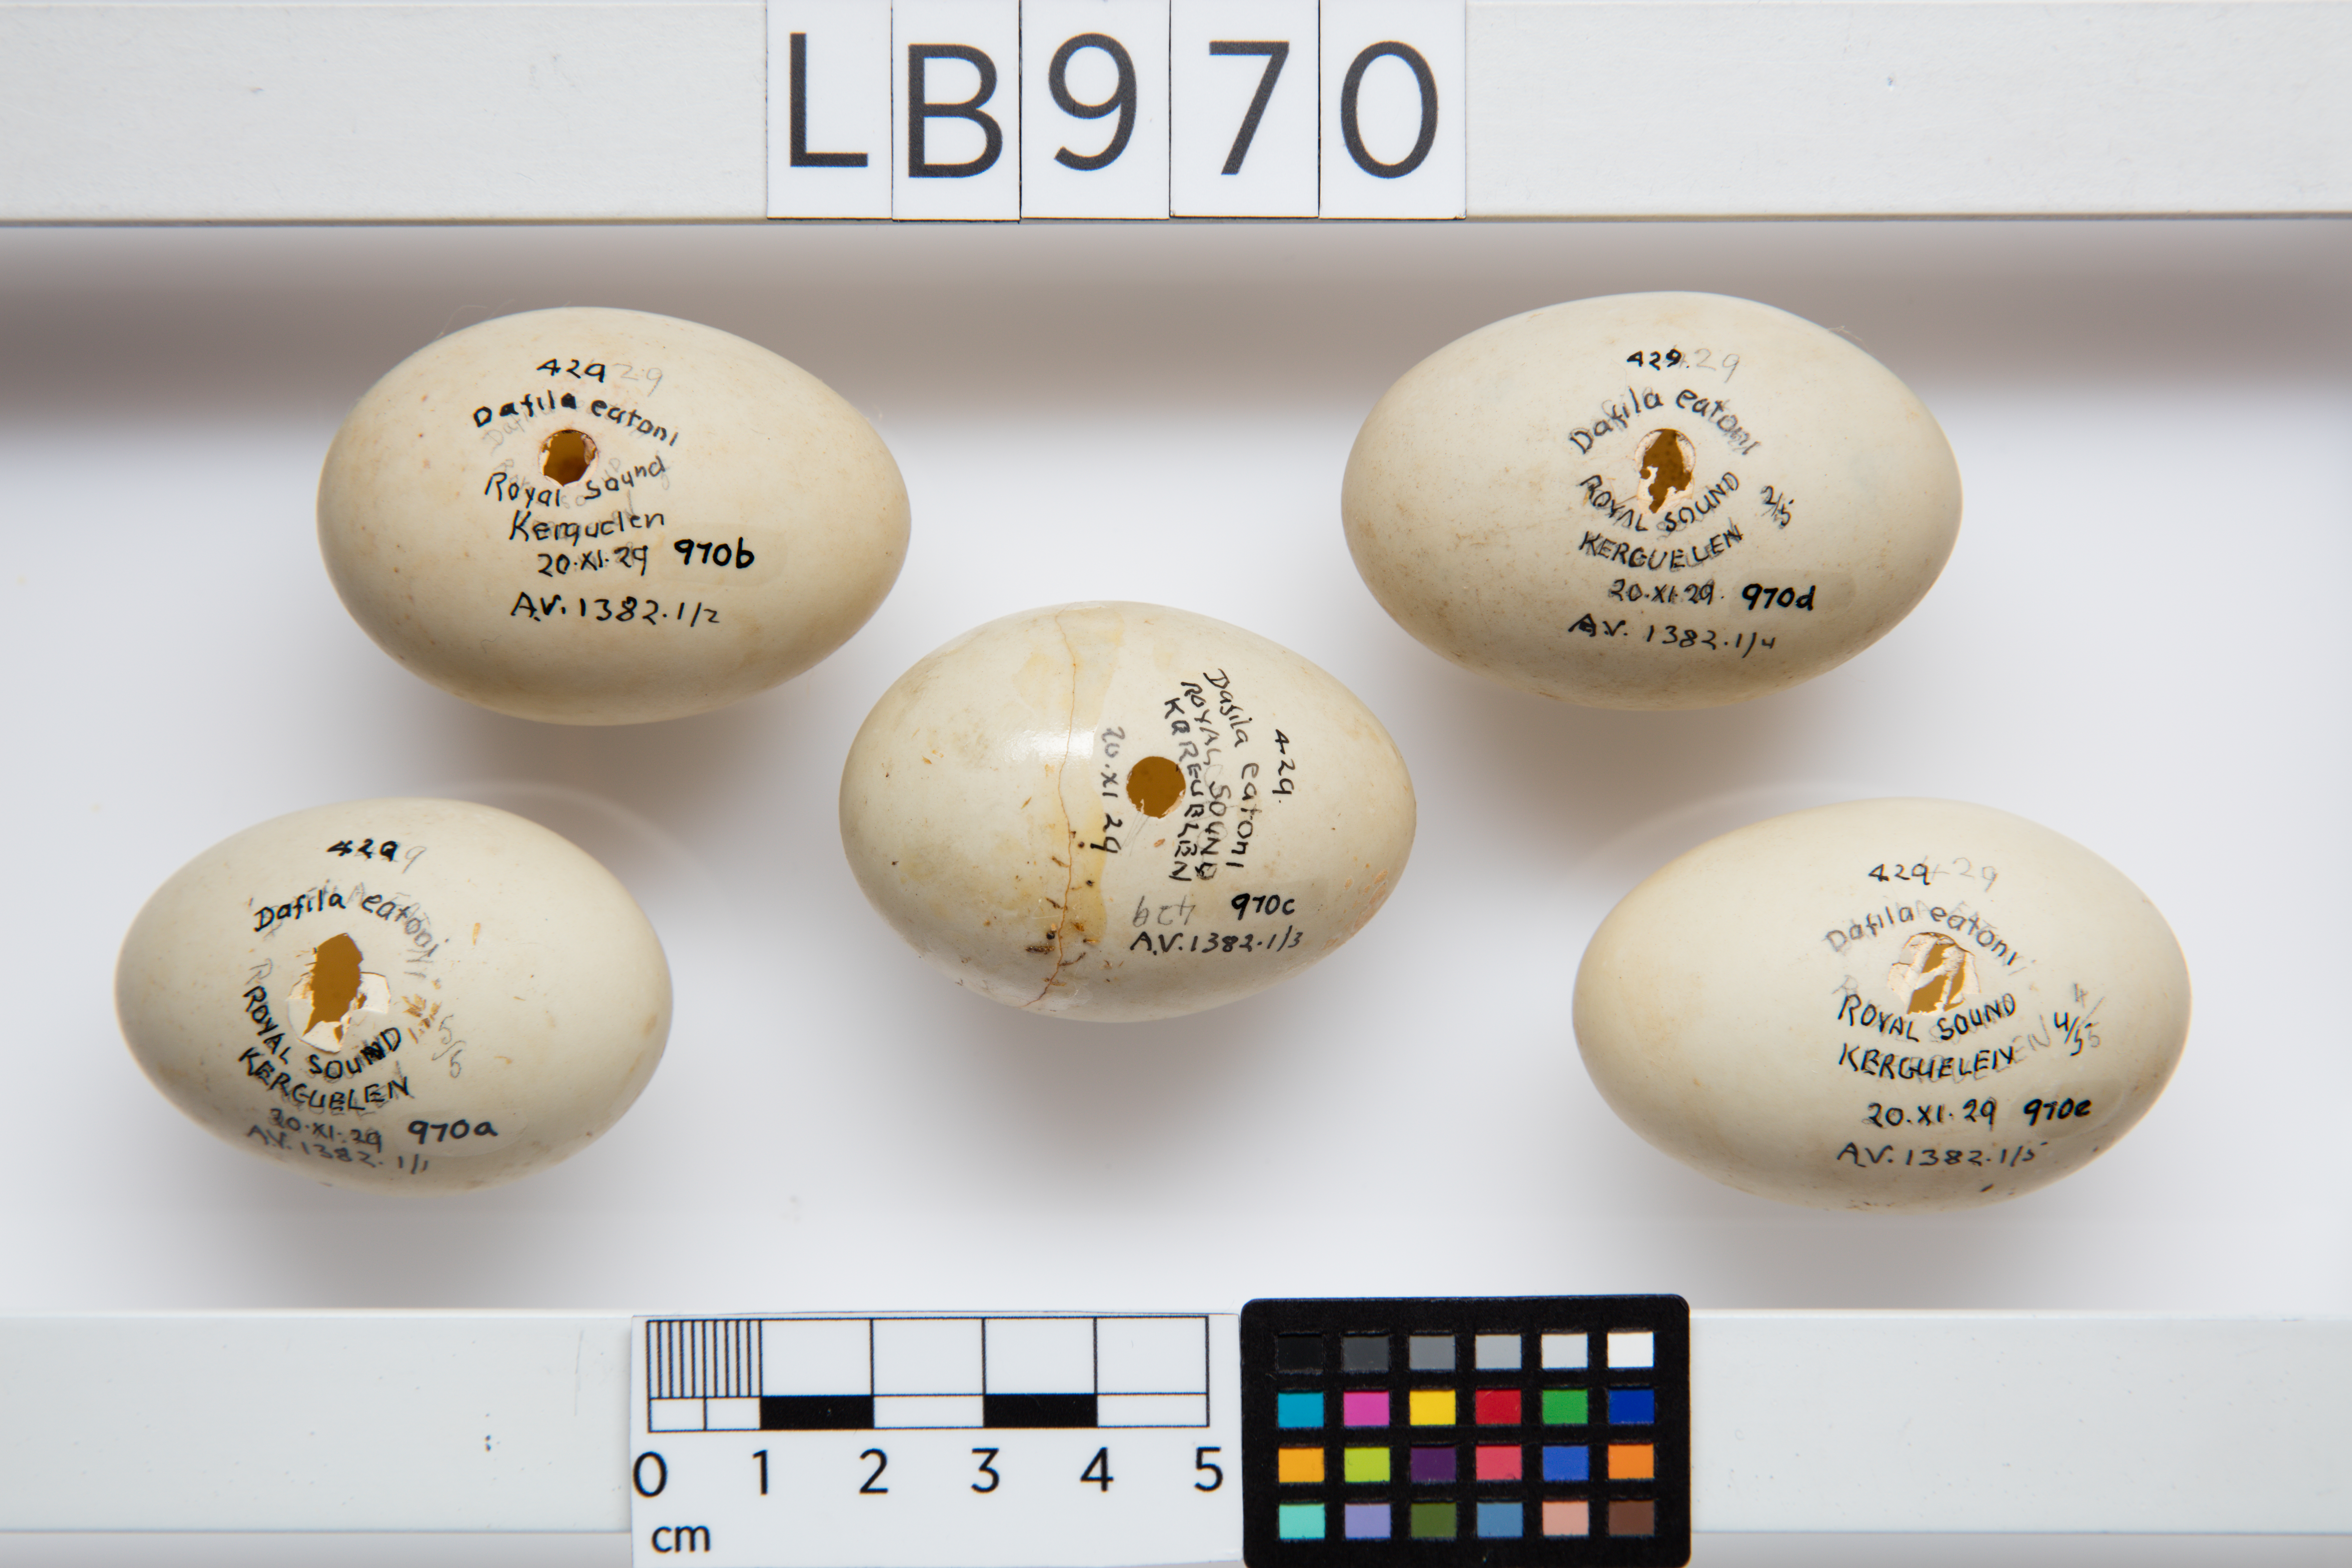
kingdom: Animalia
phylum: Chordata
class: Aves
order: Anseriformes
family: Anatidae
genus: Anas
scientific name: Anas eatoni
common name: Eaton's pintail
